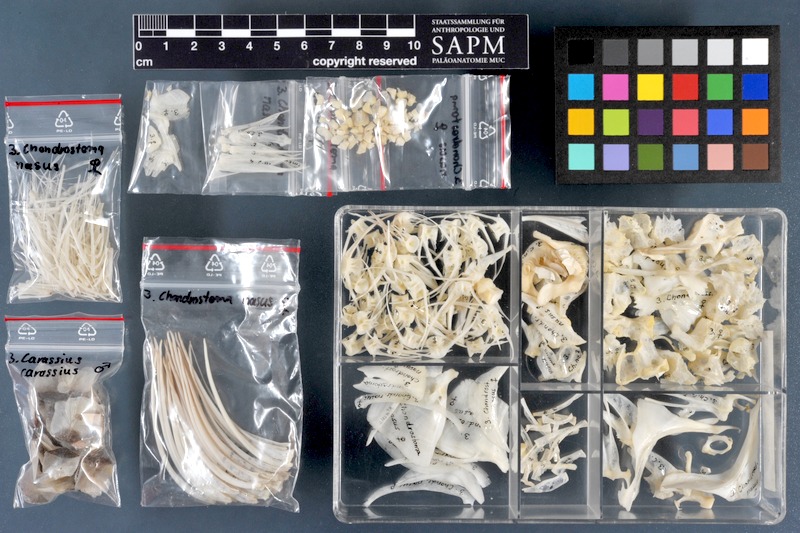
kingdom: Animalia
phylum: Chordata
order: Cypriniformes
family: Cyprinidae
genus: Chondrostoma
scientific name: Chondrostoma nasus
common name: Nase
